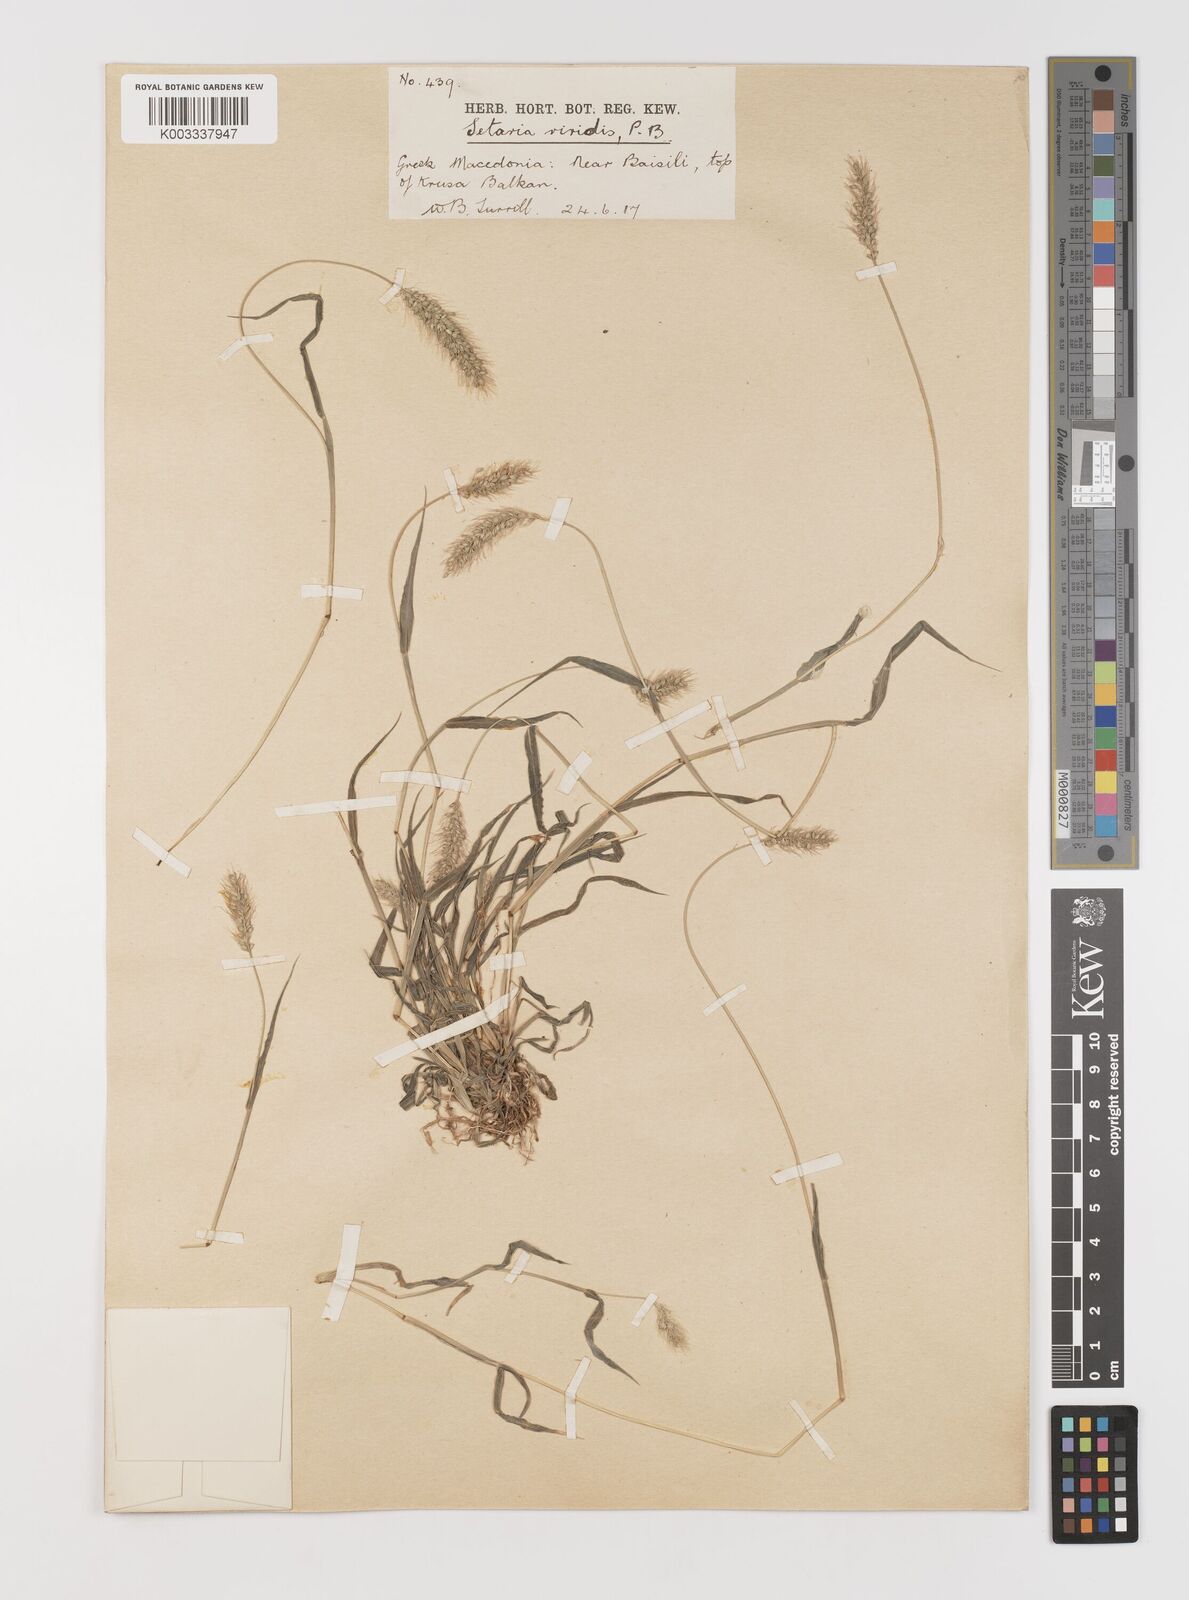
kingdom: Plantae
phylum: Tracheophyta
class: Liliopsida
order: Poales
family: Poaceae
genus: Setaria
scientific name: Setaria viridis
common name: Green bristlegrass
